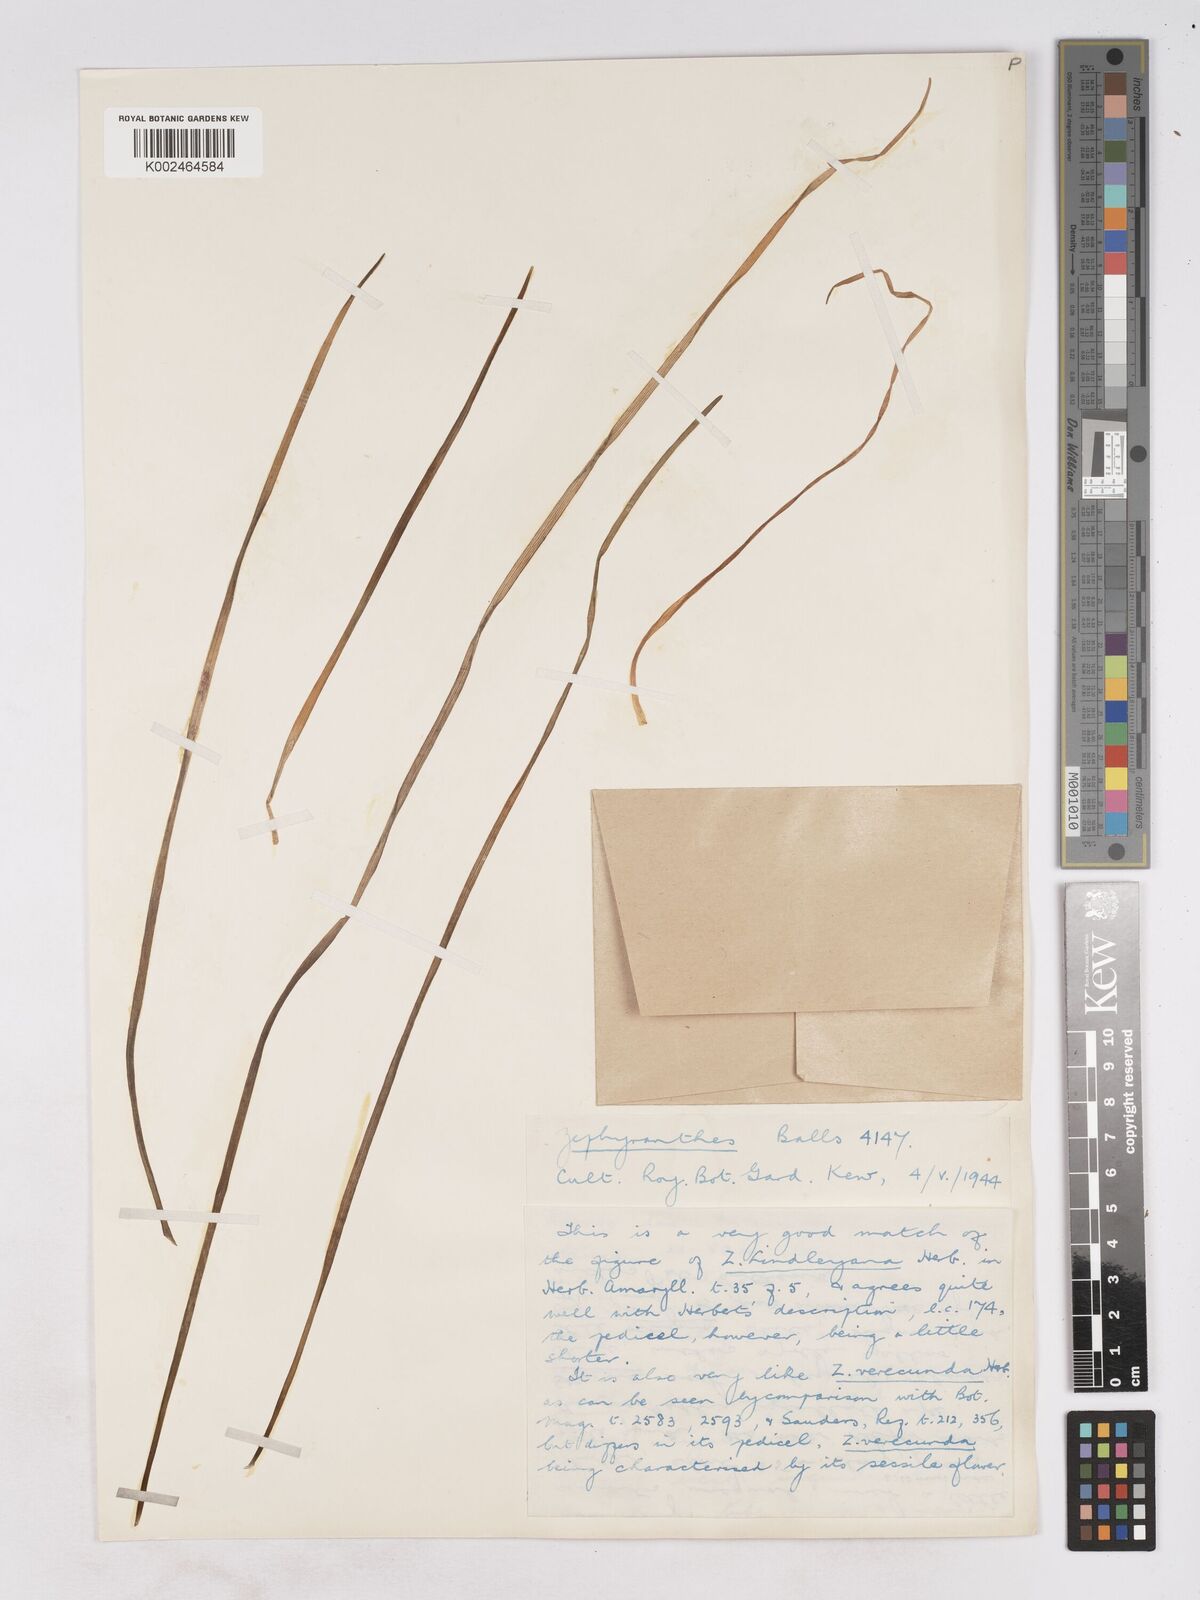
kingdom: Plantae
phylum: Tracheophyta
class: Liliopsida
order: Asparagales
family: Amaryllidaceae
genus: Zephyranthes
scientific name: Zephyranthes lindleyana
